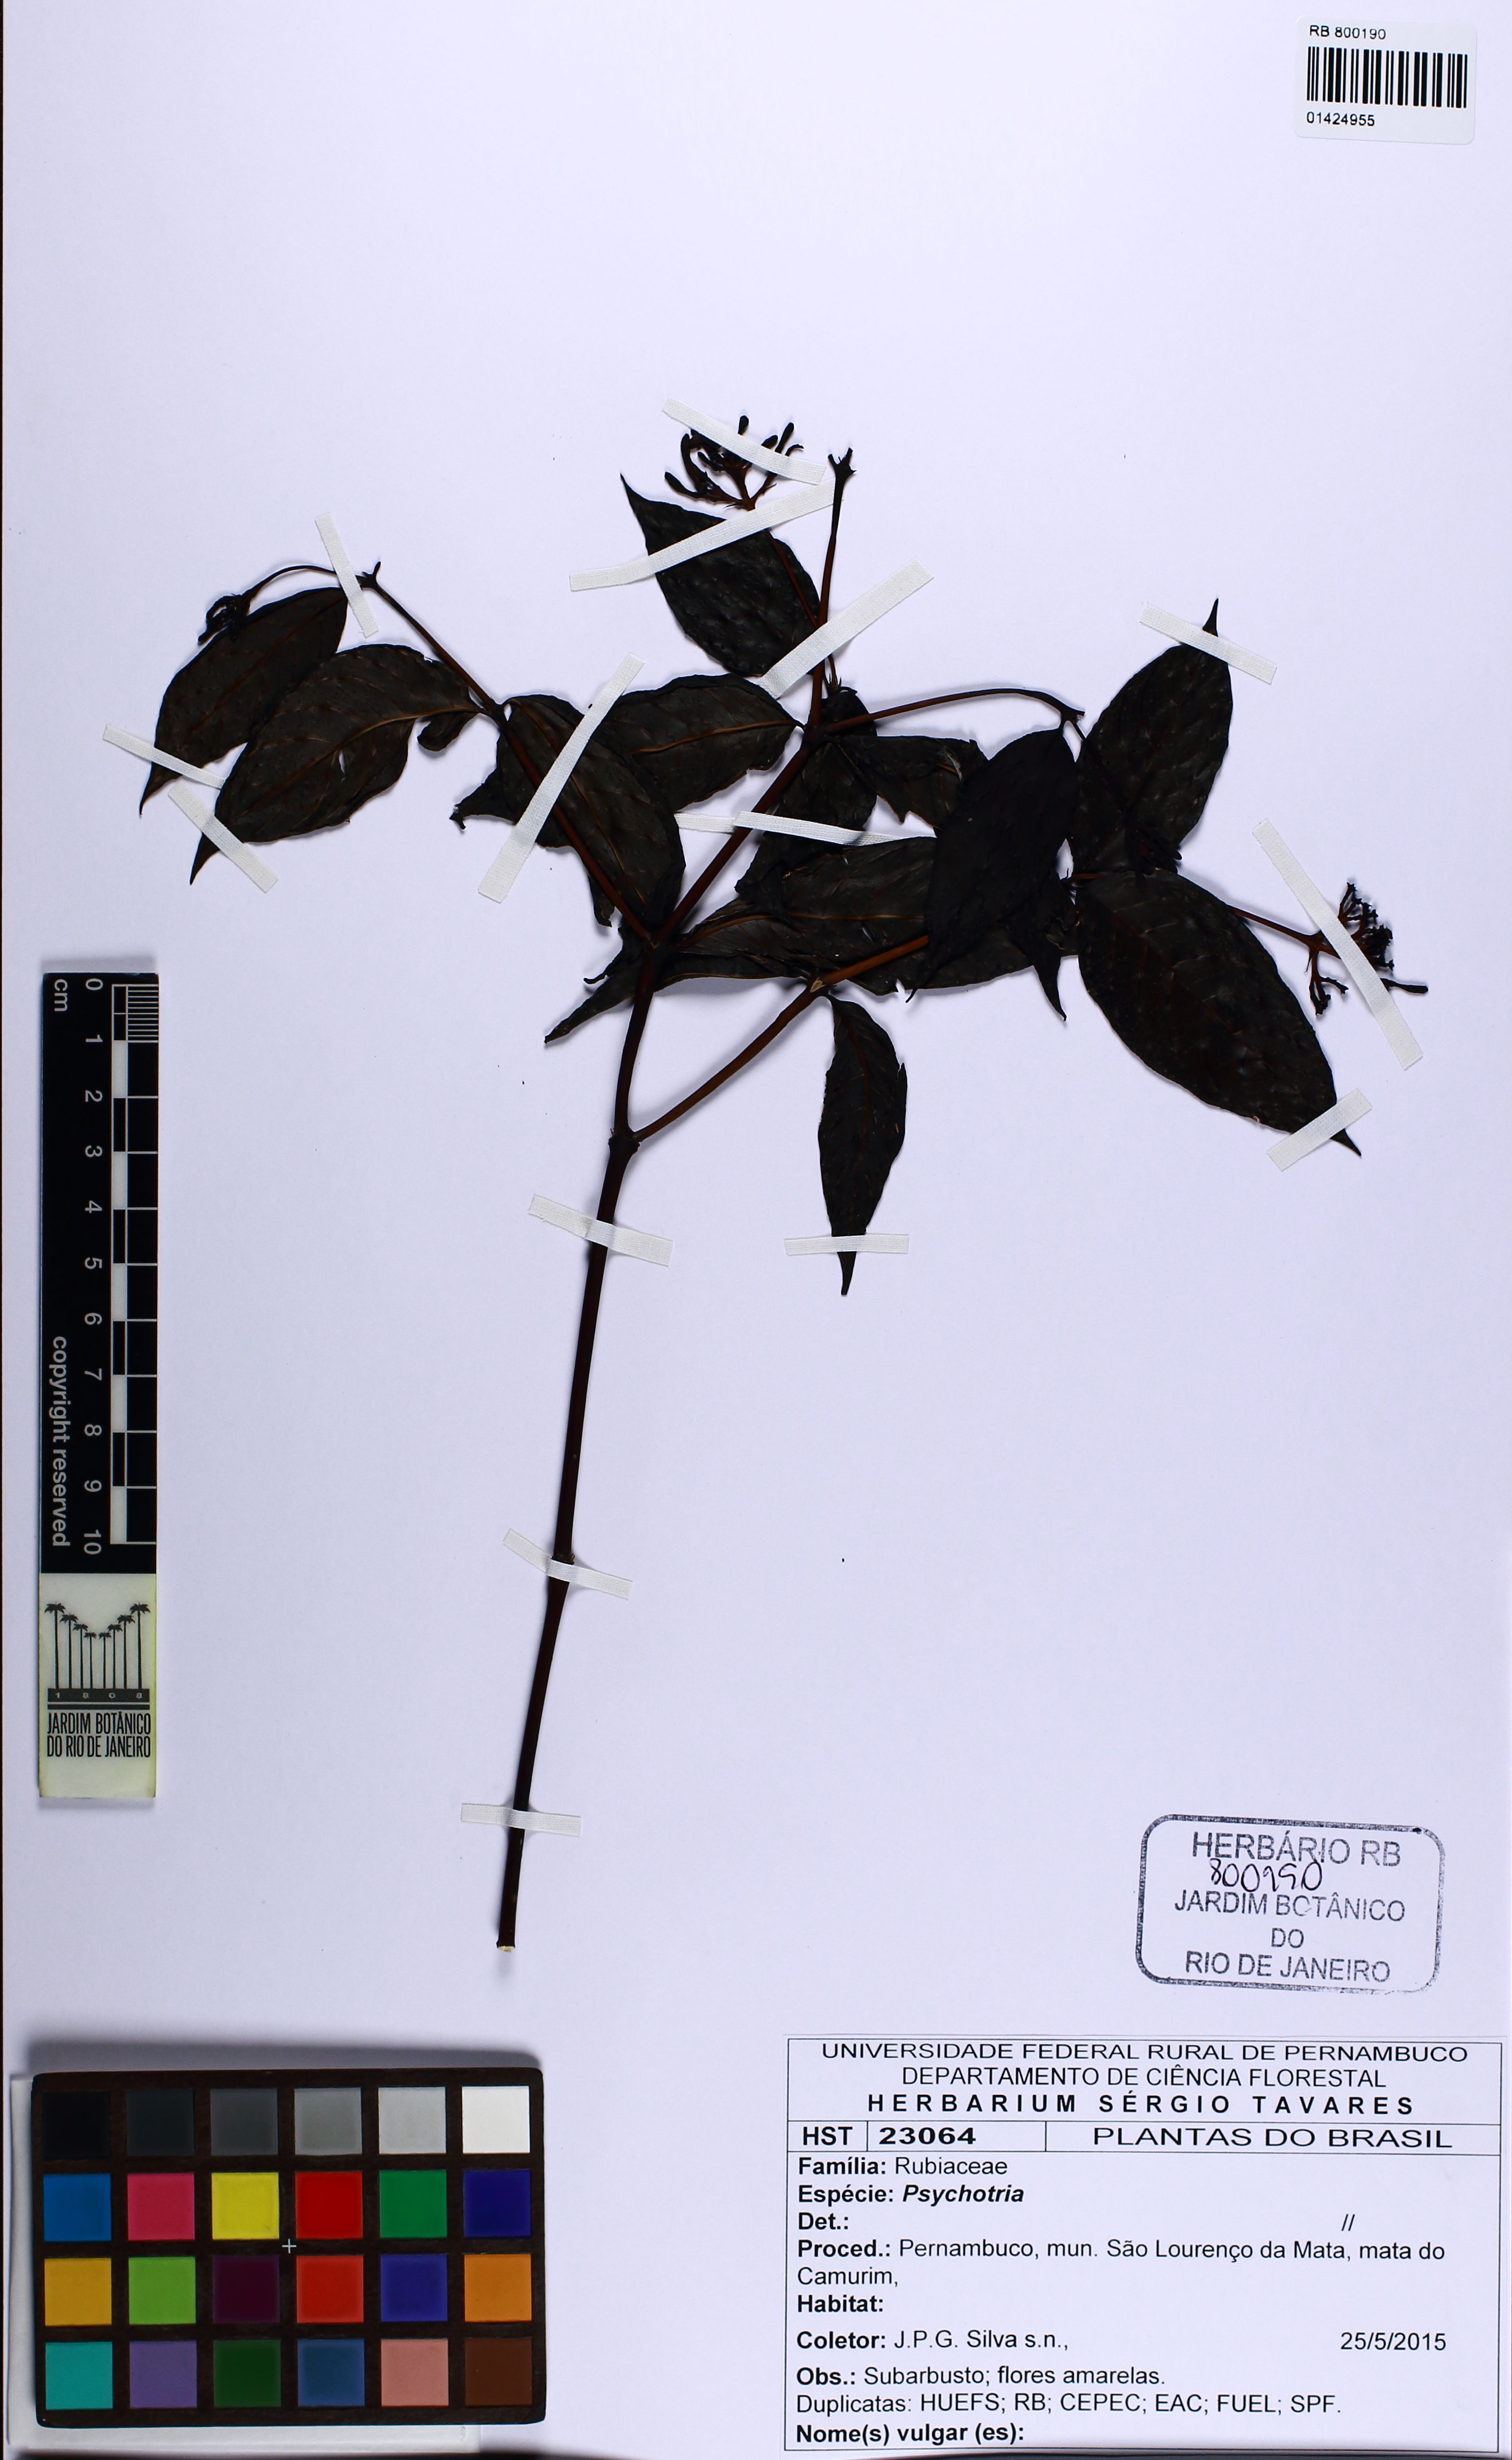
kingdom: Plantae
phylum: Tracheophyta
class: Magnoliopsida
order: Gentianales
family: Rubiaceae
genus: Psychotria
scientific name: Psychotria
